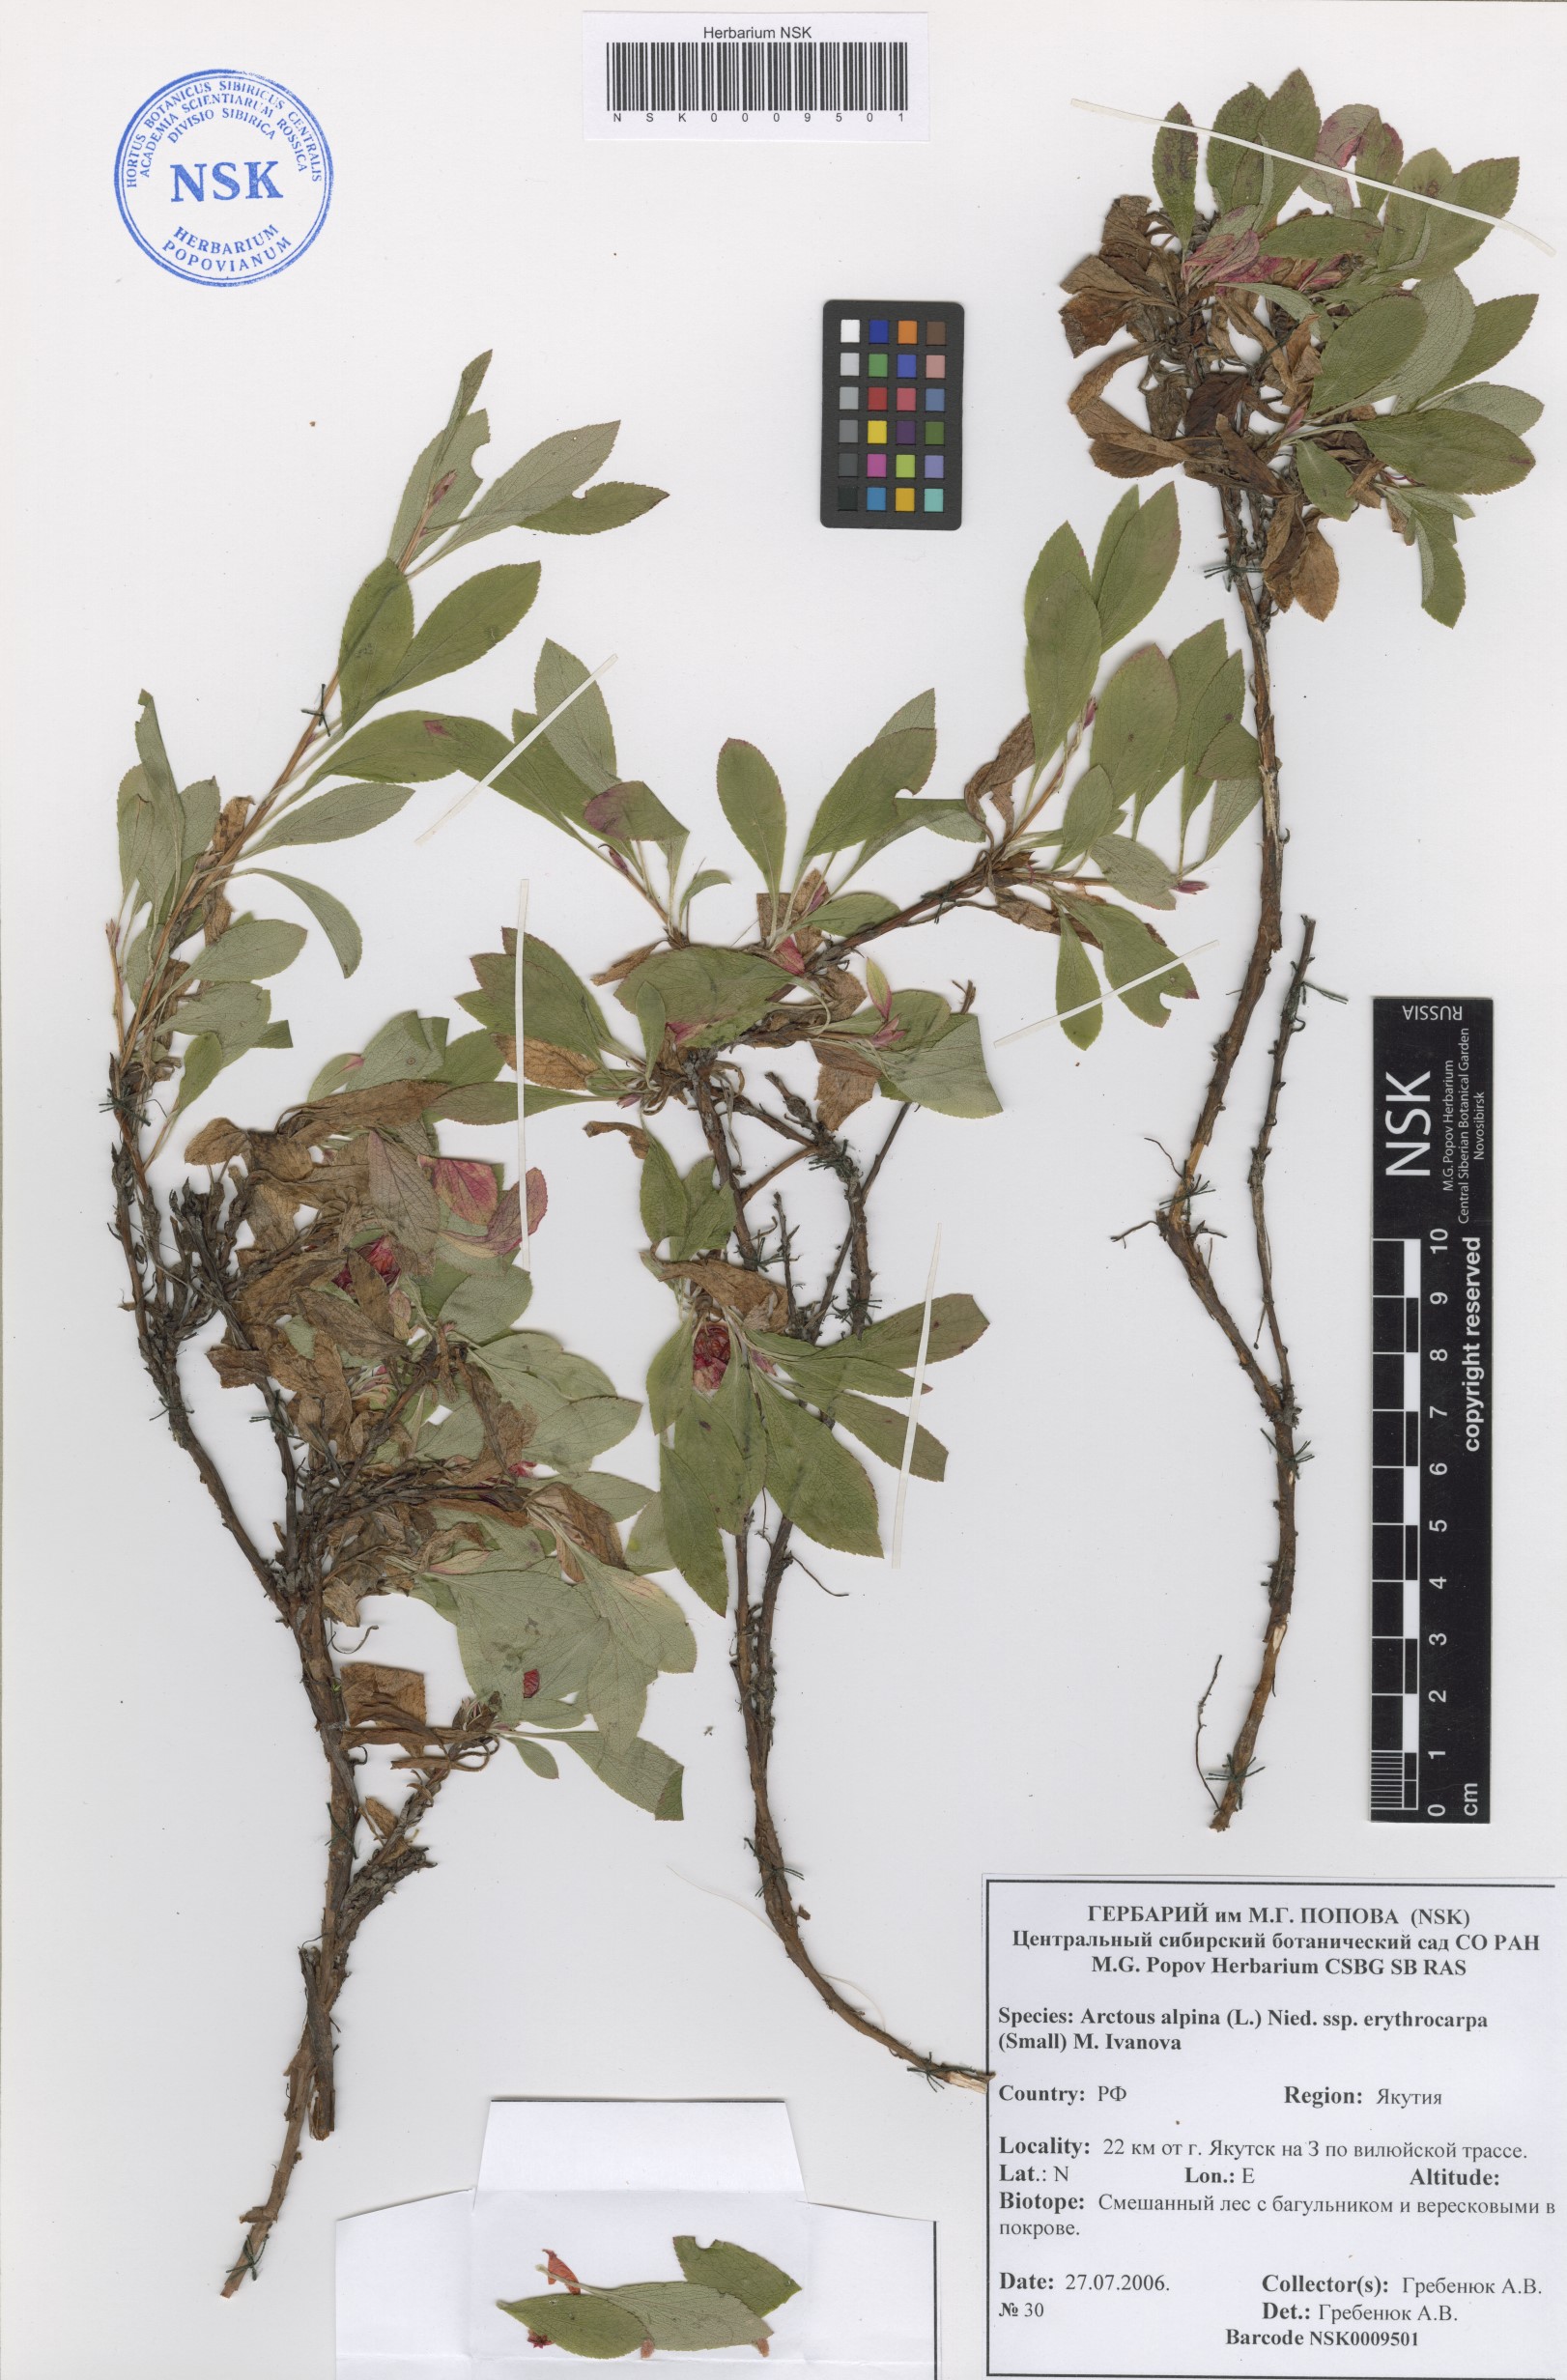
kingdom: Plantae
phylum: Tracheophyta
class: Magnoliopsida
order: Ericales
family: Ericaceae
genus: Arctostaphylos
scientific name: Arctostaphylos rubra
